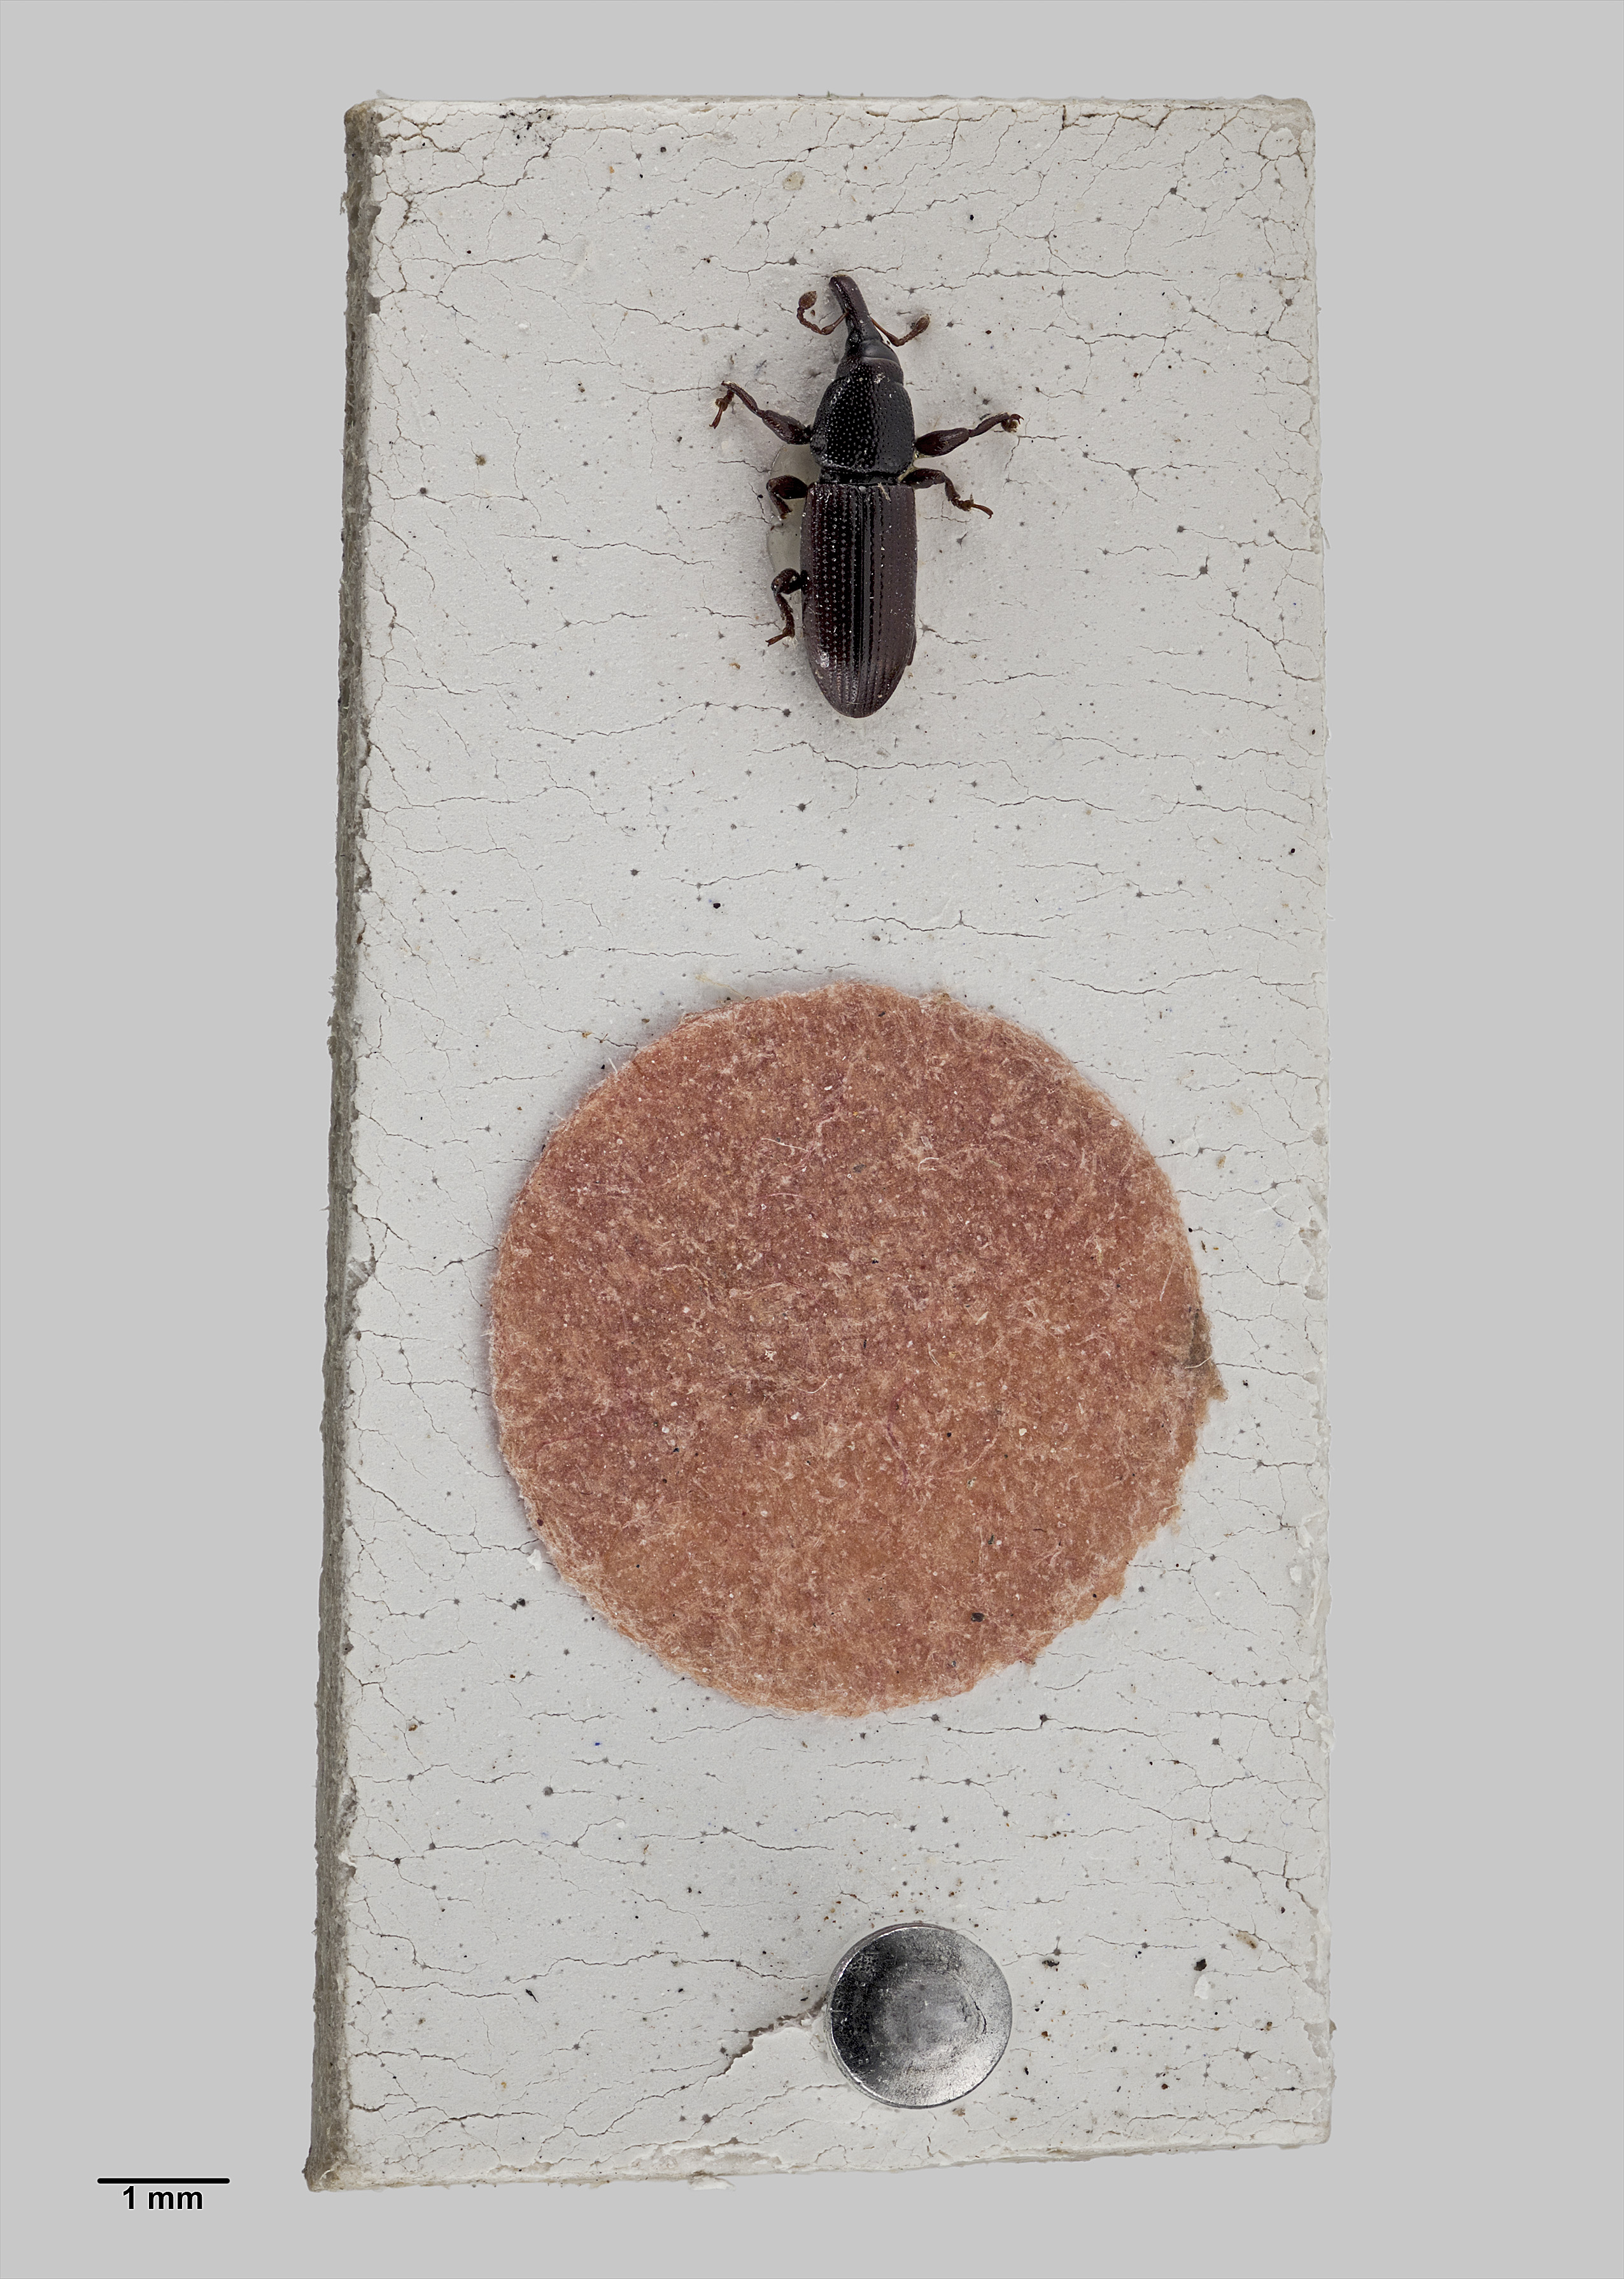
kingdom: Animalia
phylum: Arthropoda
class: Insecta
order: Coleoptera
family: Curculionidae
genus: Pentarthrum
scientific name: Pentarthrum gracilicorne
